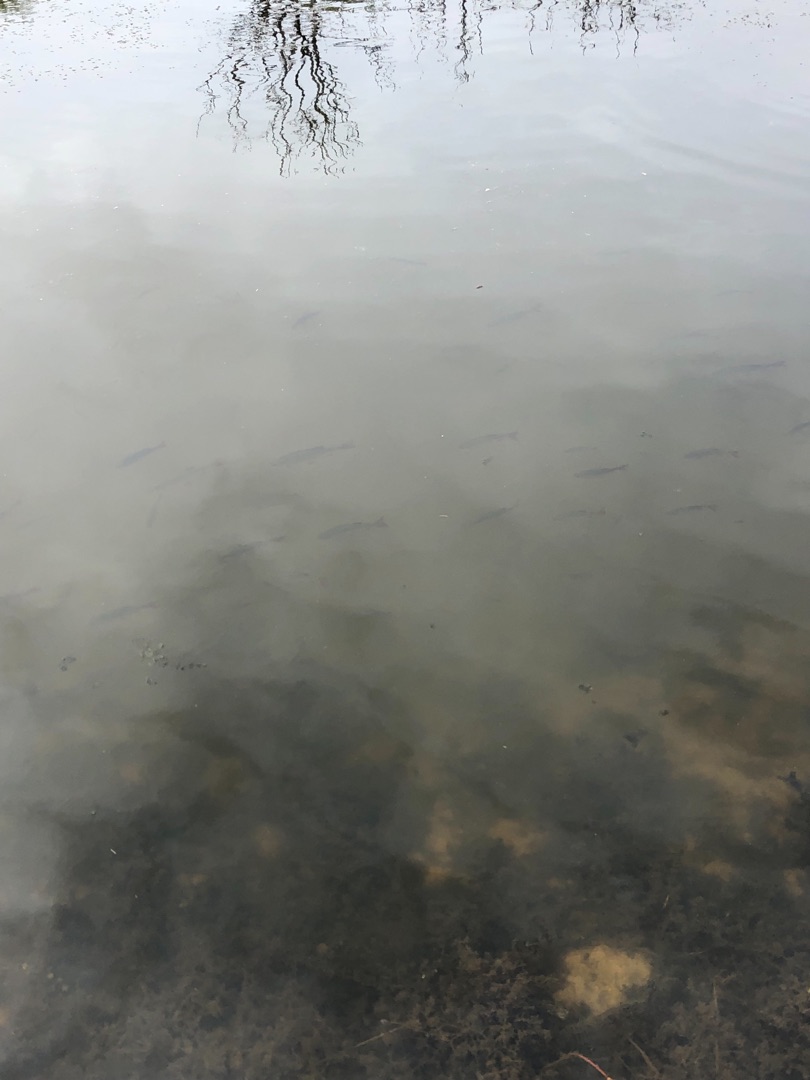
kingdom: Animalia
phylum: Chordata
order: Cypriniformes
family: Cyprinidae
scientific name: Cyprinidae
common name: Karpefamilien
